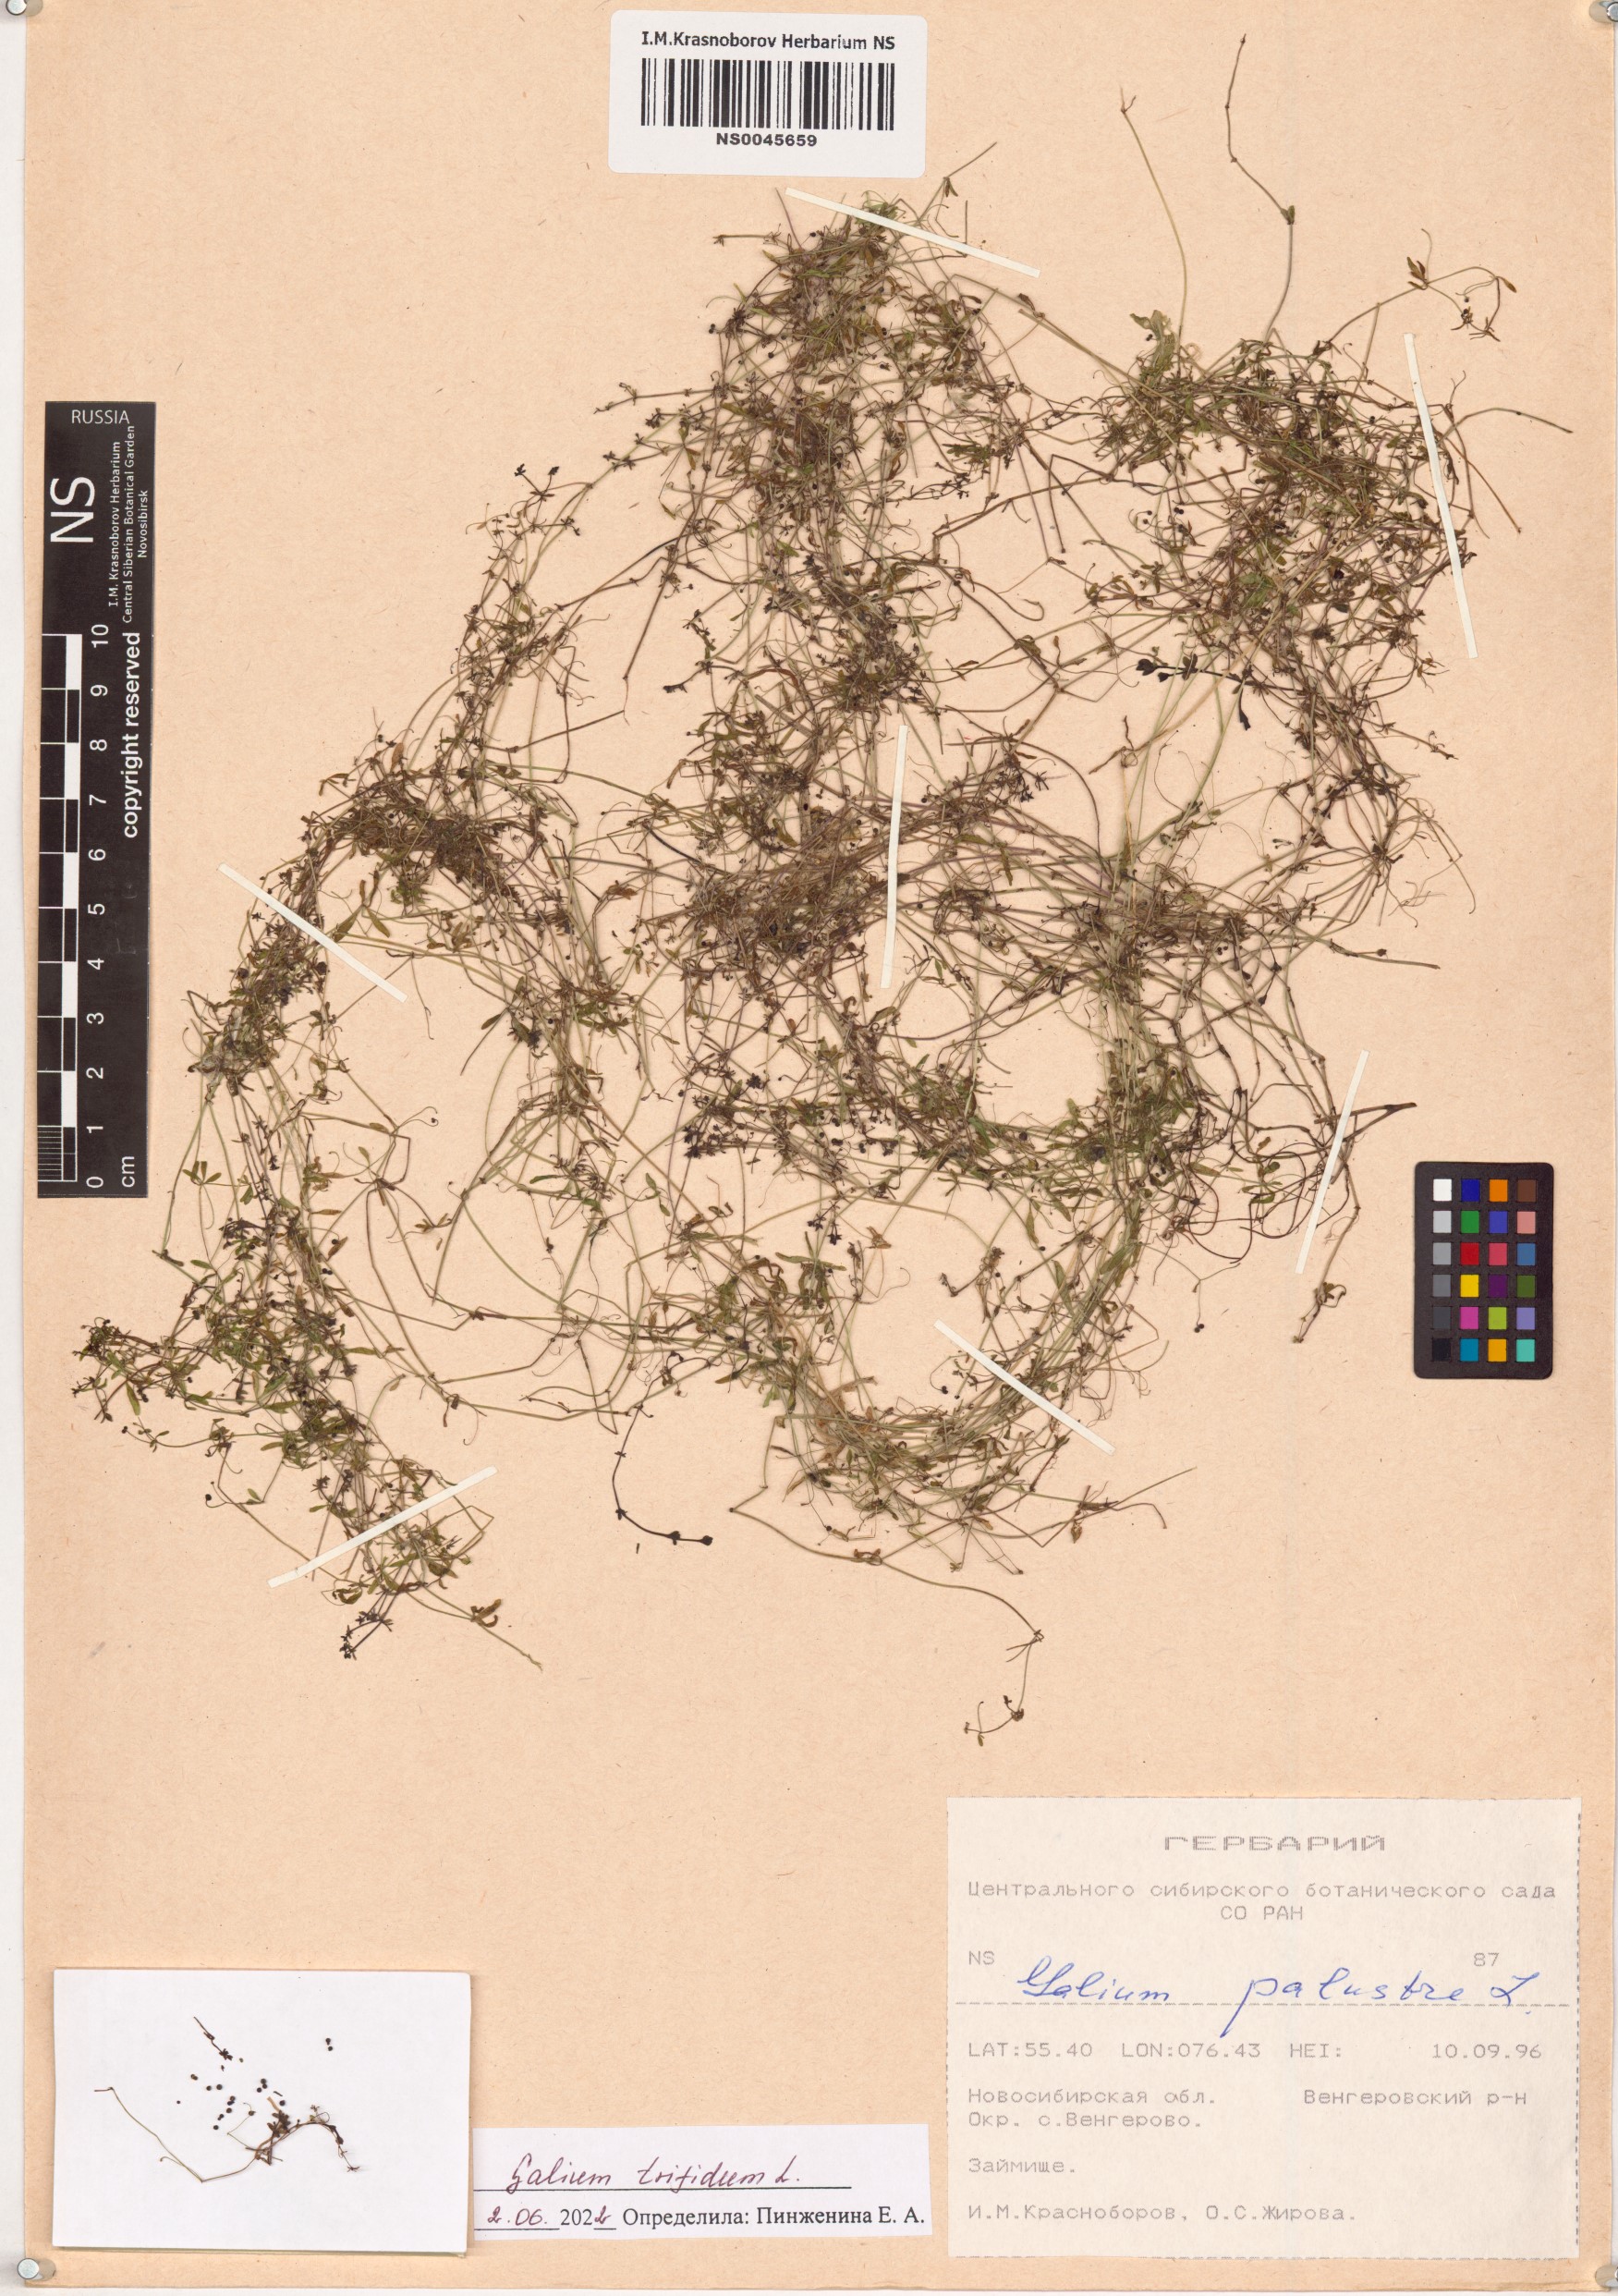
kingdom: Plantae
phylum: Tracheophyta
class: Magnoliopsida
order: Gentianales
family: Rubiaceae
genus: Galium
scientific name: Galium trifidum
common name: Small bedstraw
